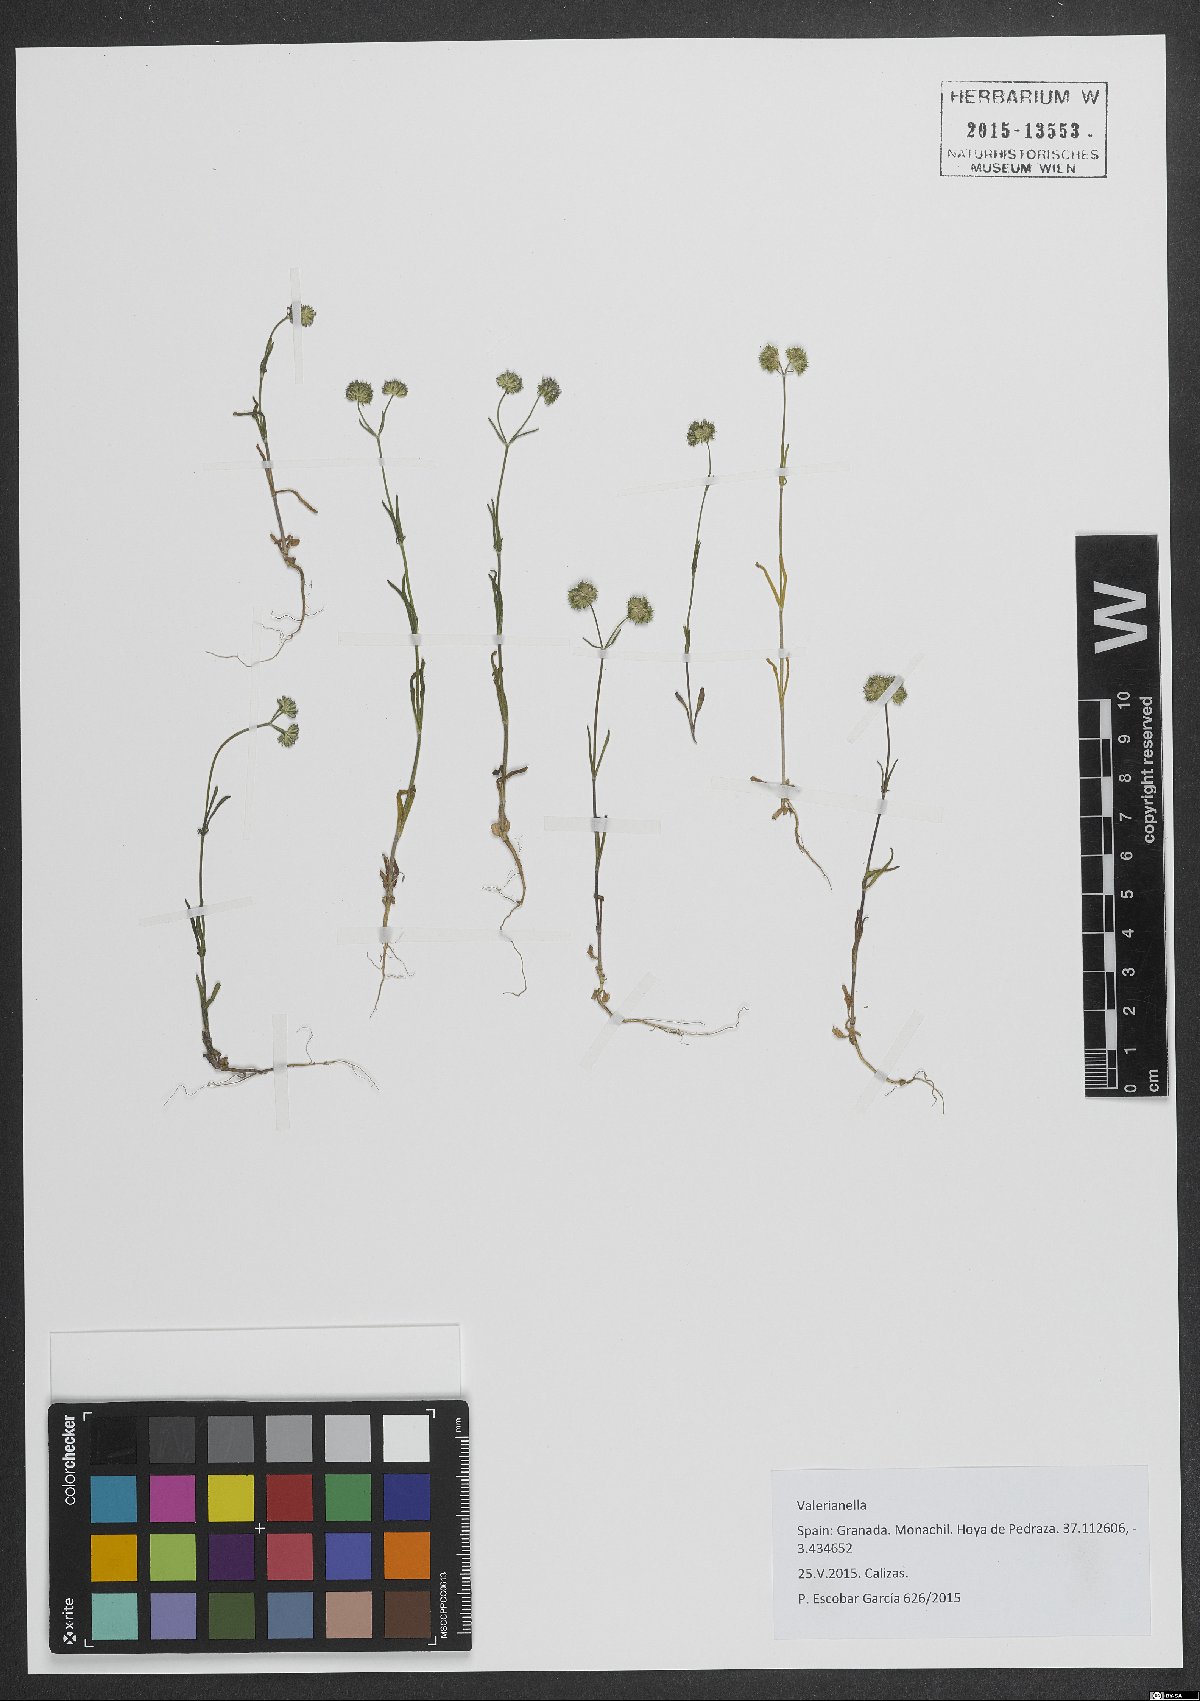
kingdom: Plantae
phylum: Tracheophyta
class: Magnoliopsida
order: Dipsacales
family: Caprifoliaceae
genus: Valerianella
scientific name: Valerianella
